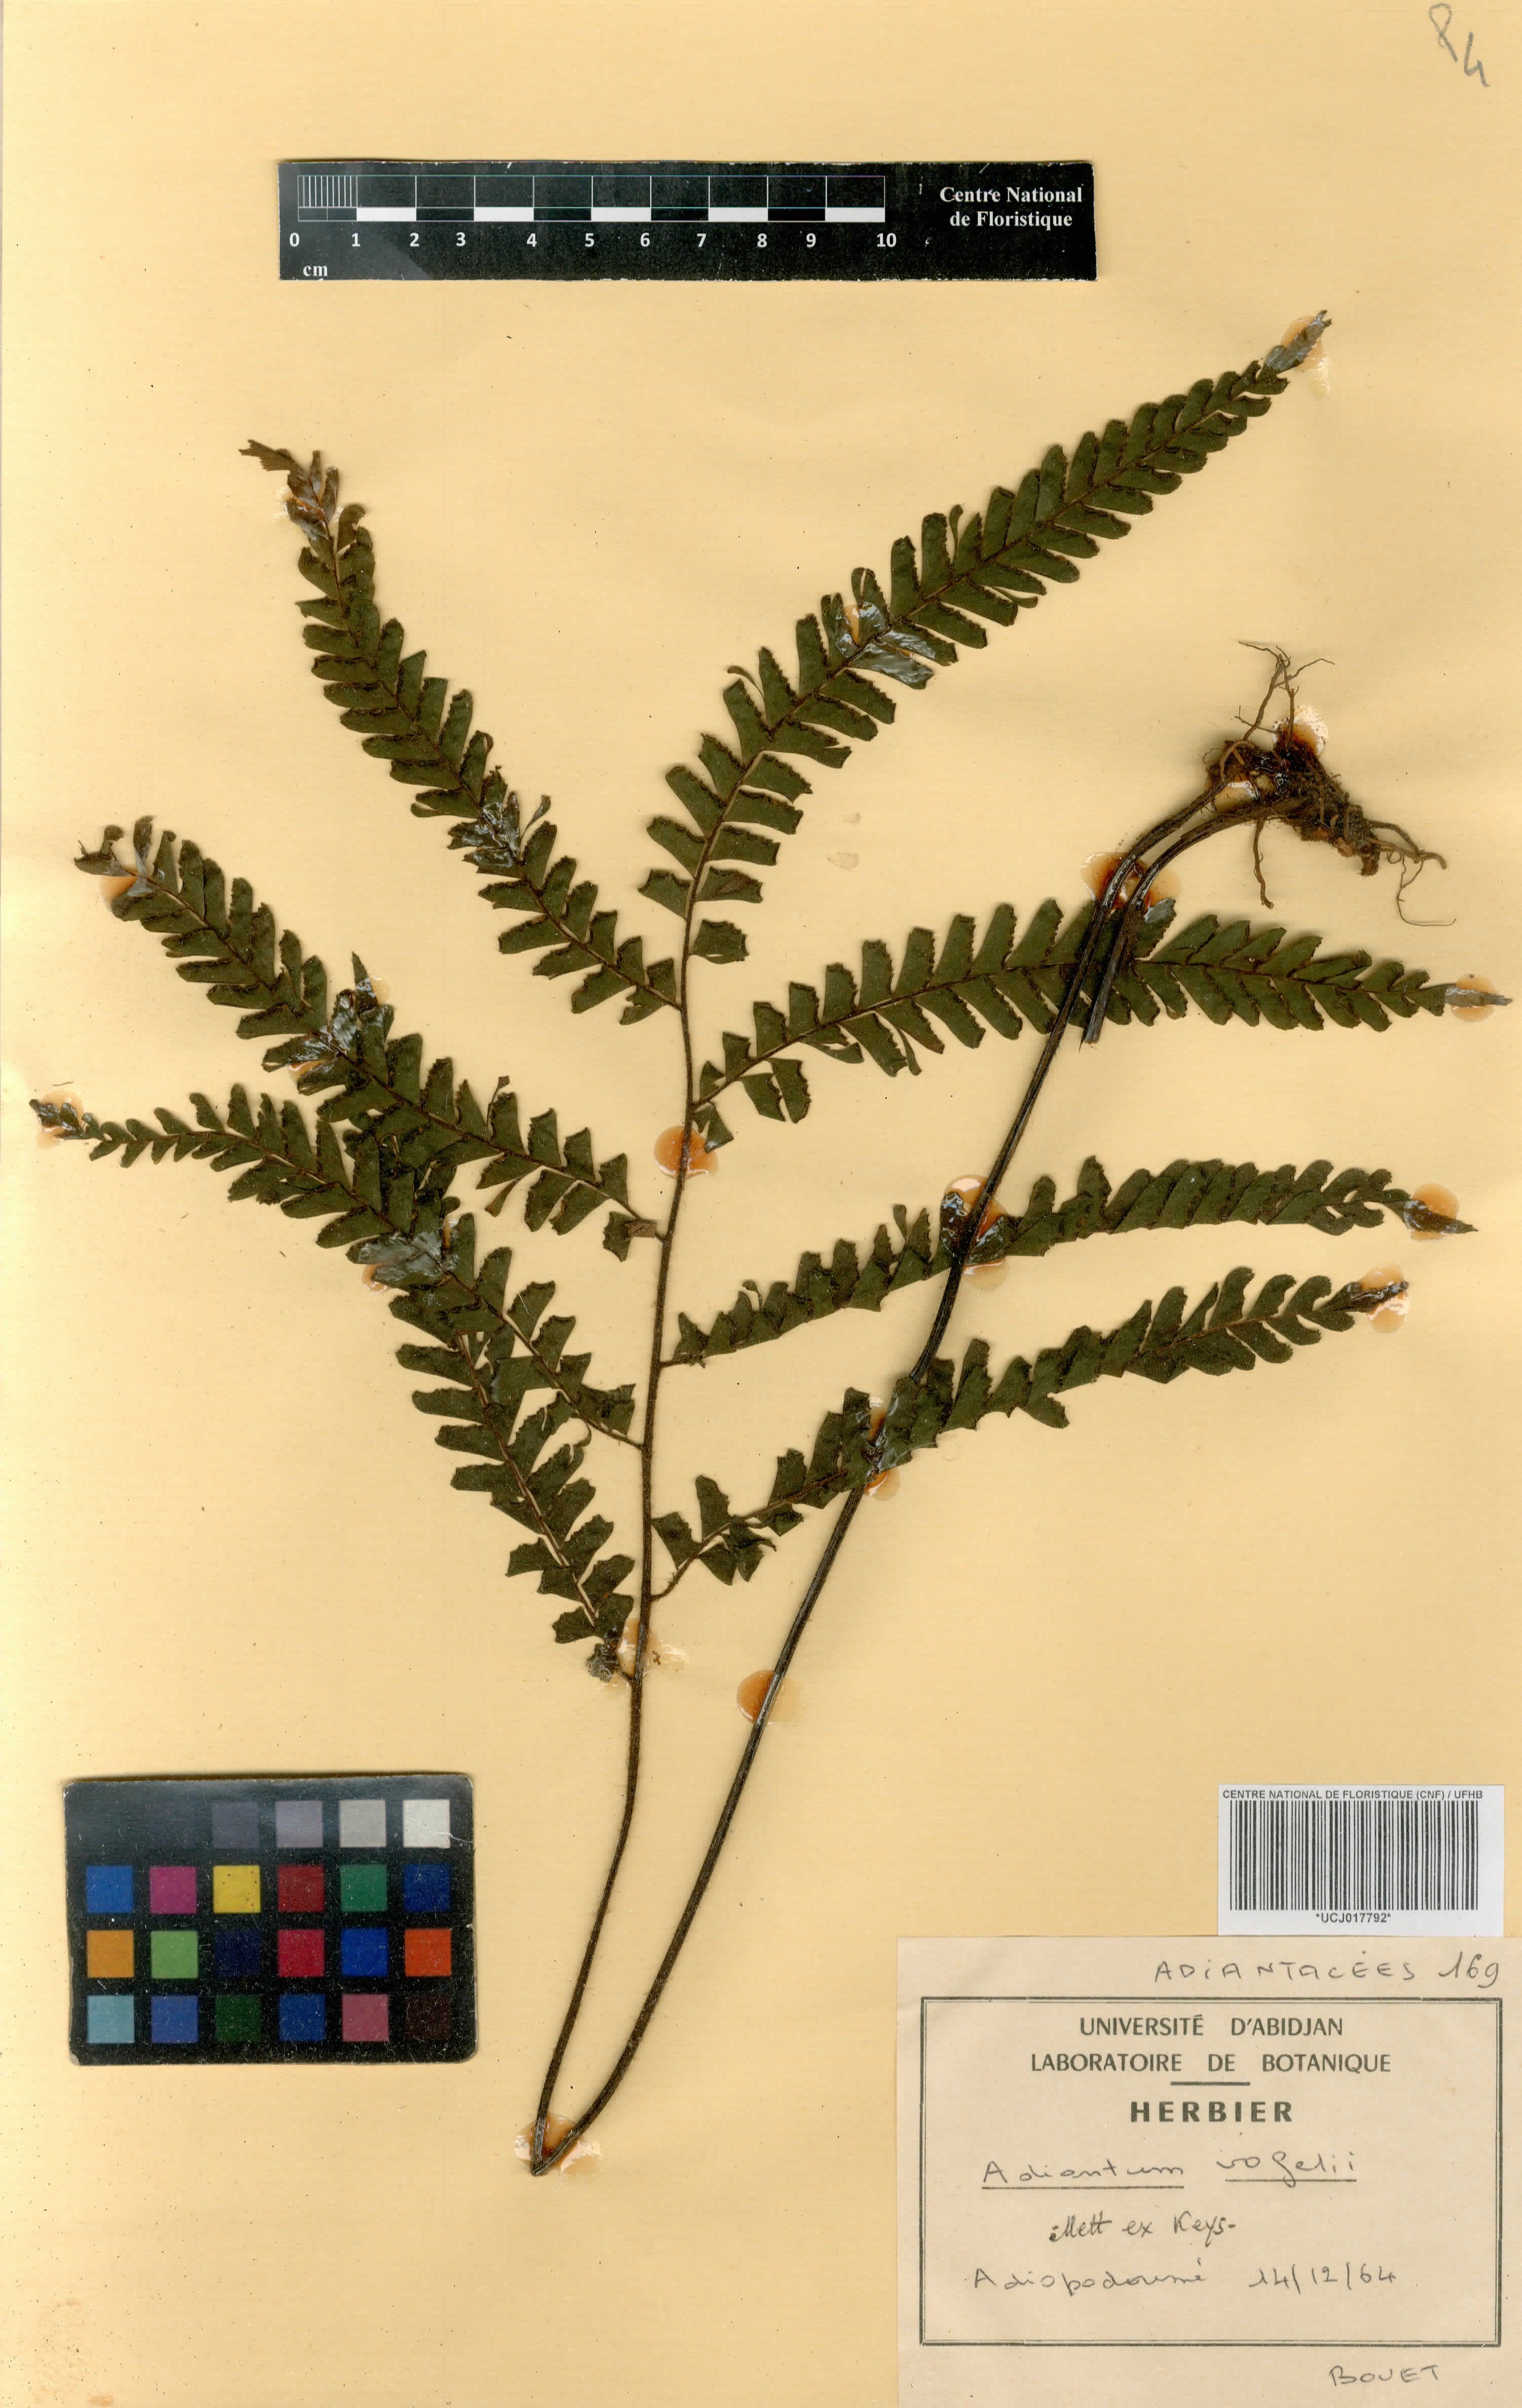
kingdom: Plantae
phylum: Tracheophyta
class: Polypodiopsida
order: Polypodiales
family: Pteridaceae
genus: Adiantum
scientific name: Adiantum vogelii
